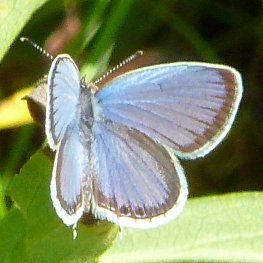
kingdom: Animalia
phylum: Arthropoda
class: Insecta
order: Lepidoptera
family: Lycaenidae
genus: Elkalyce
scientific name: Elkalyce comyntas
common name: Eastern Tailed-Blue
